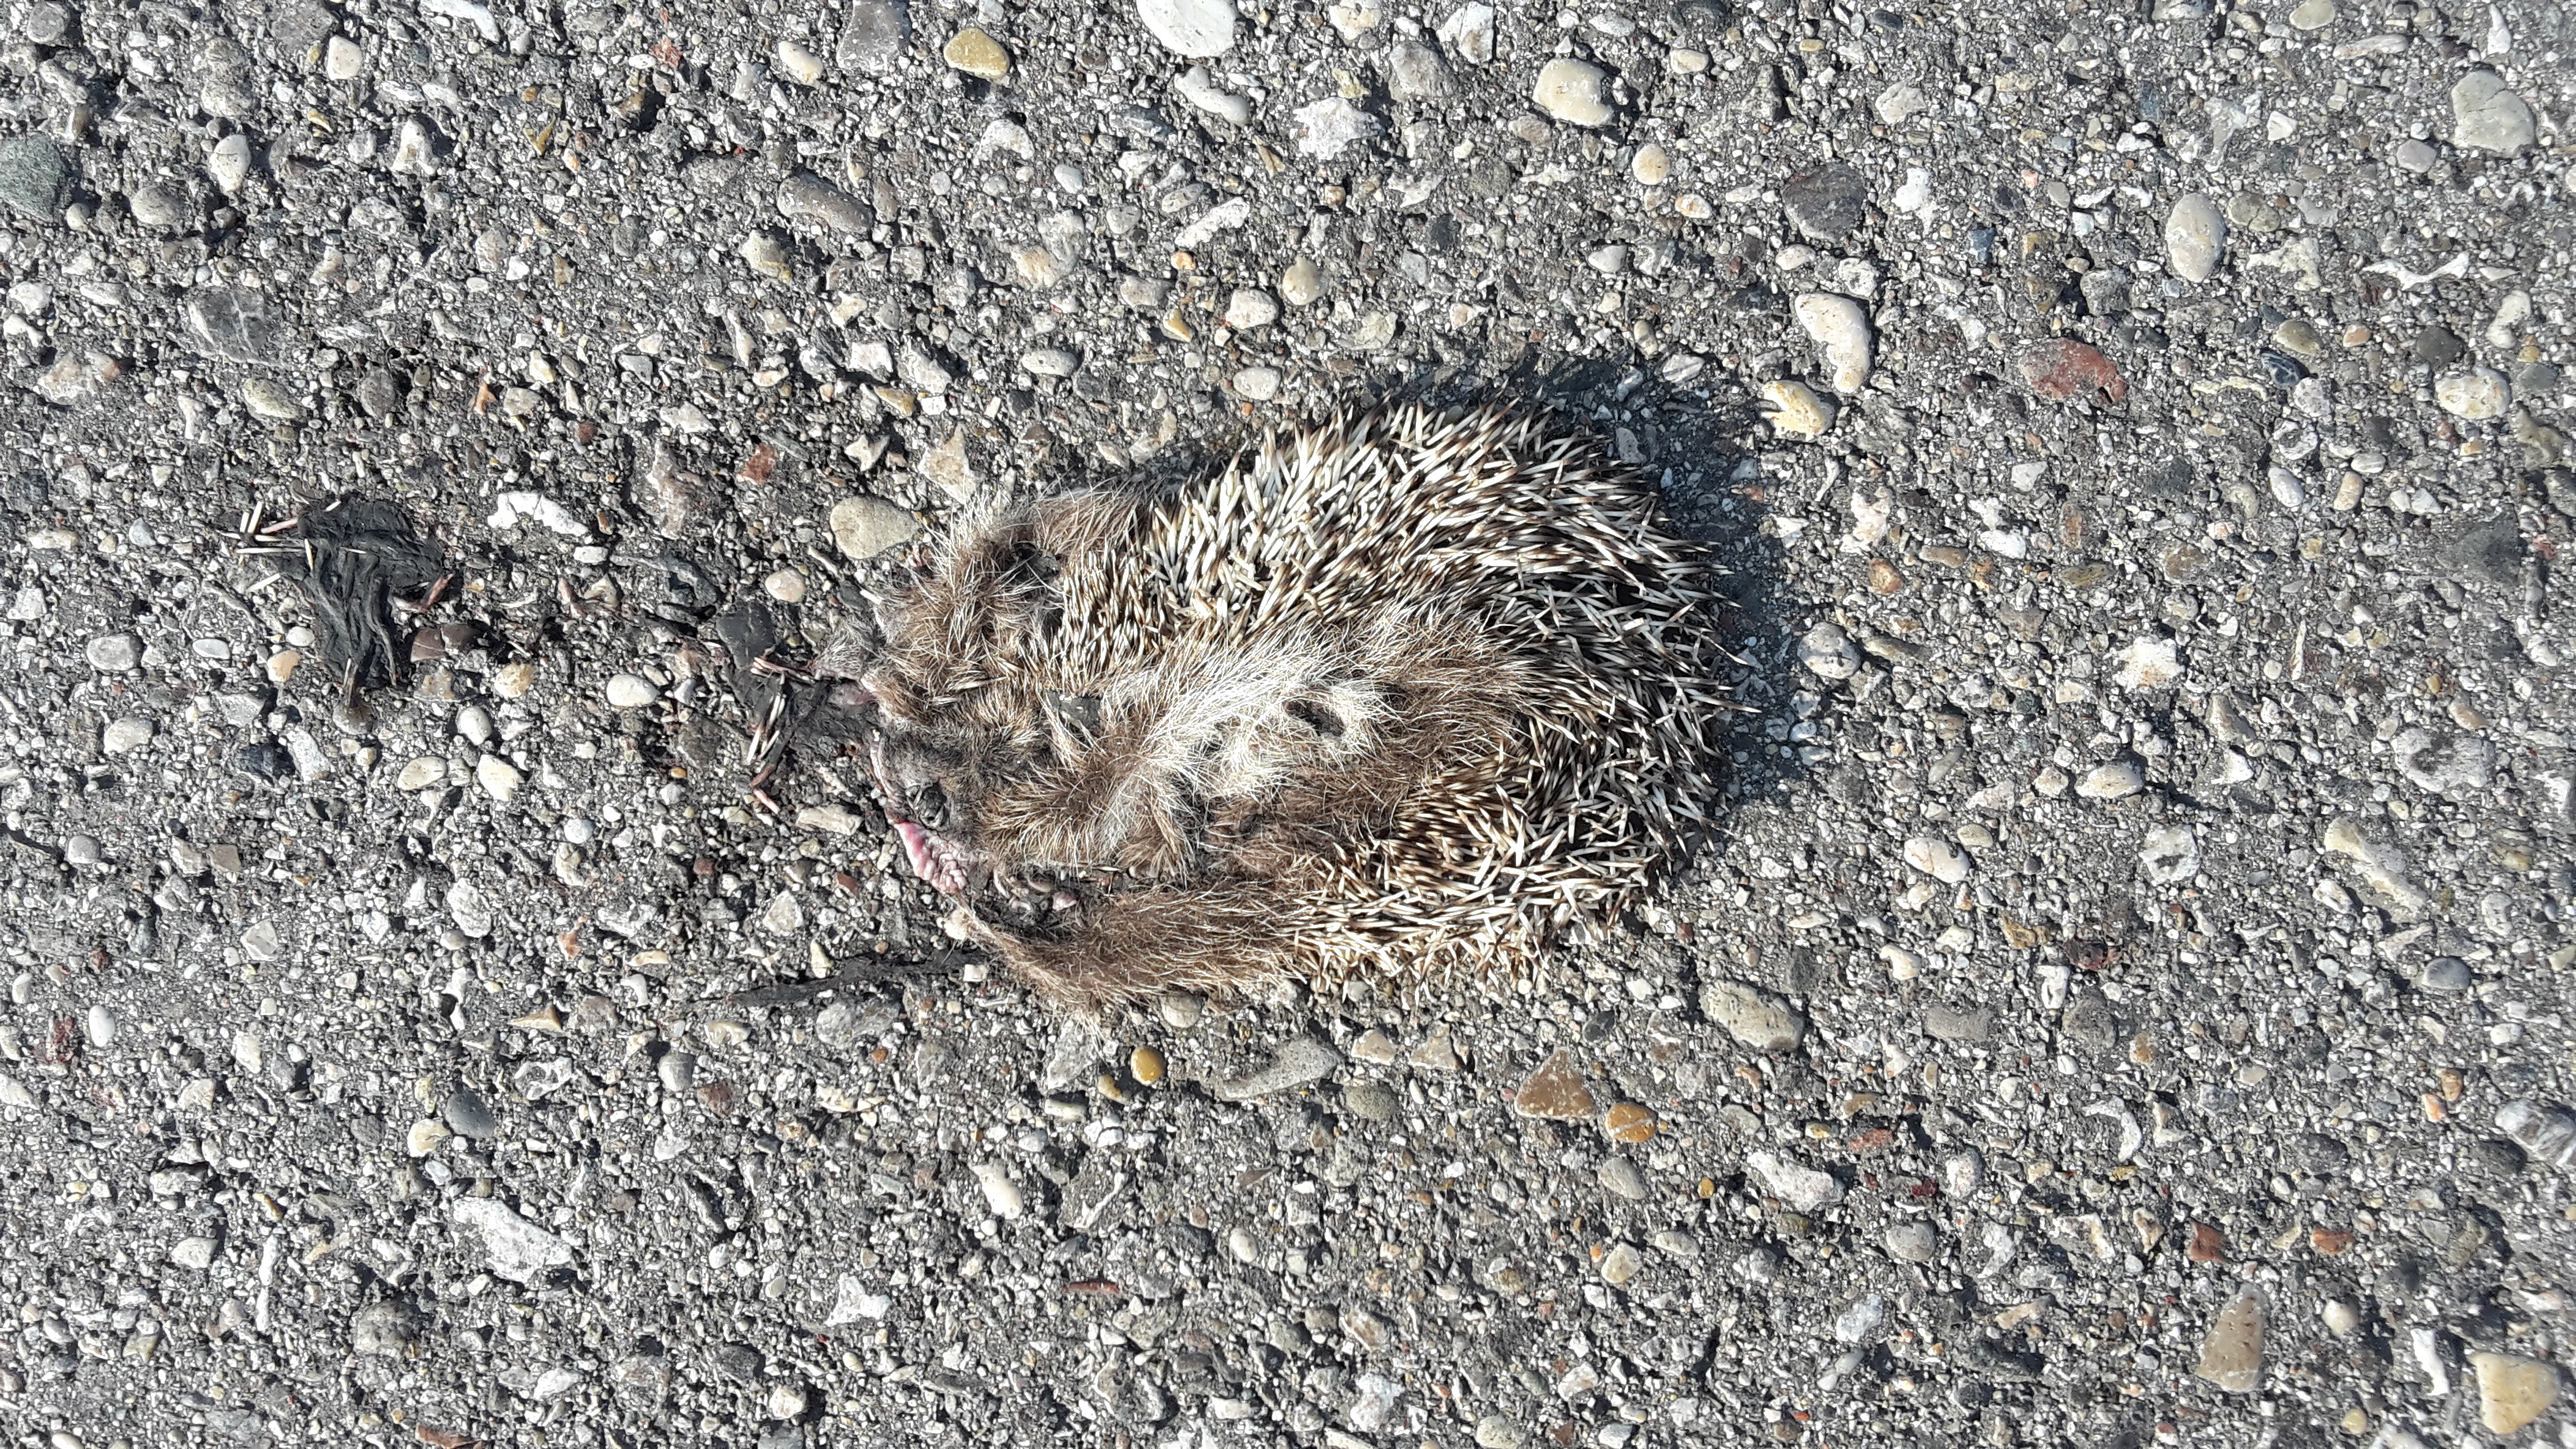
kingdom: Animalia
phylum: Chordata
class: Mammalia
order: Erinaceomorpha
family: Erinaceidae
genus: Erinaceus
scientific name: Erinaceus
